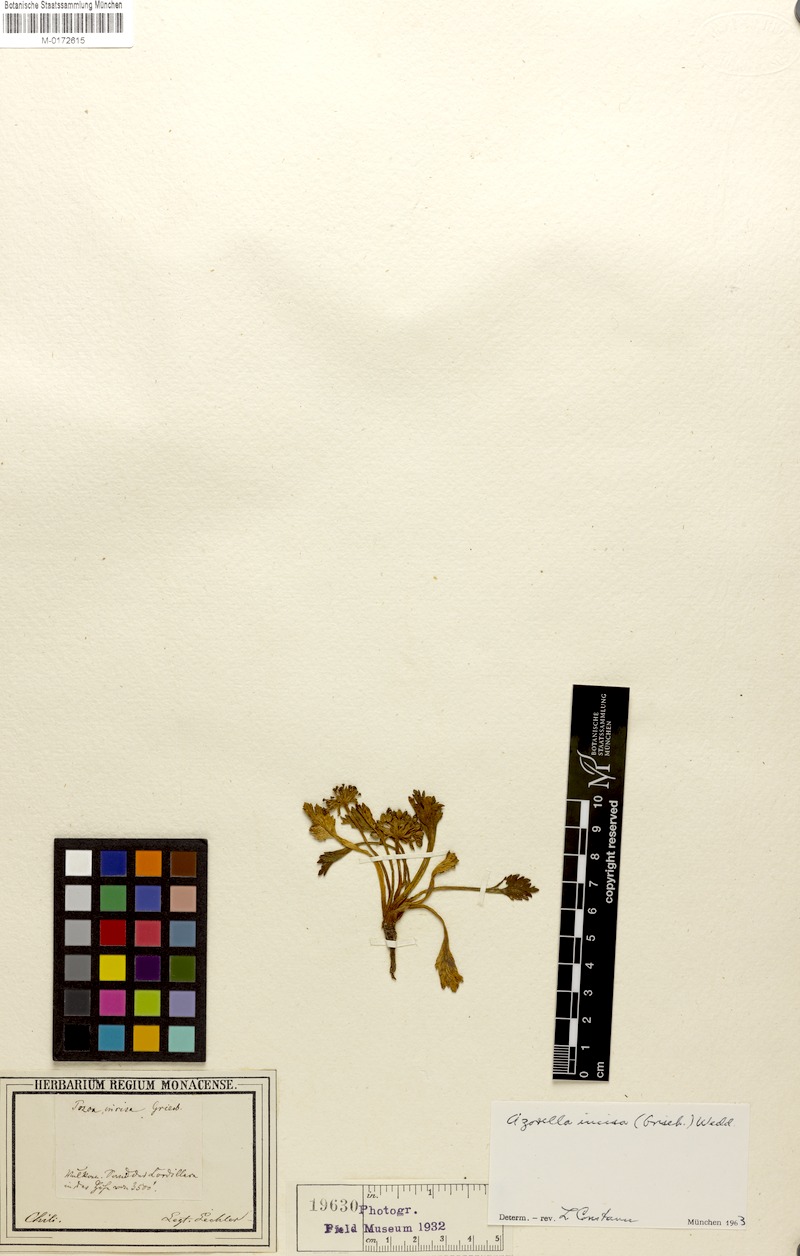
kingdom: Plantae
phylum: Tracheophyta
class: Magnoliopsida
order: Apiales
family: Apiaceae
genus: Azorella
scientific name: Azorella diversifolia
